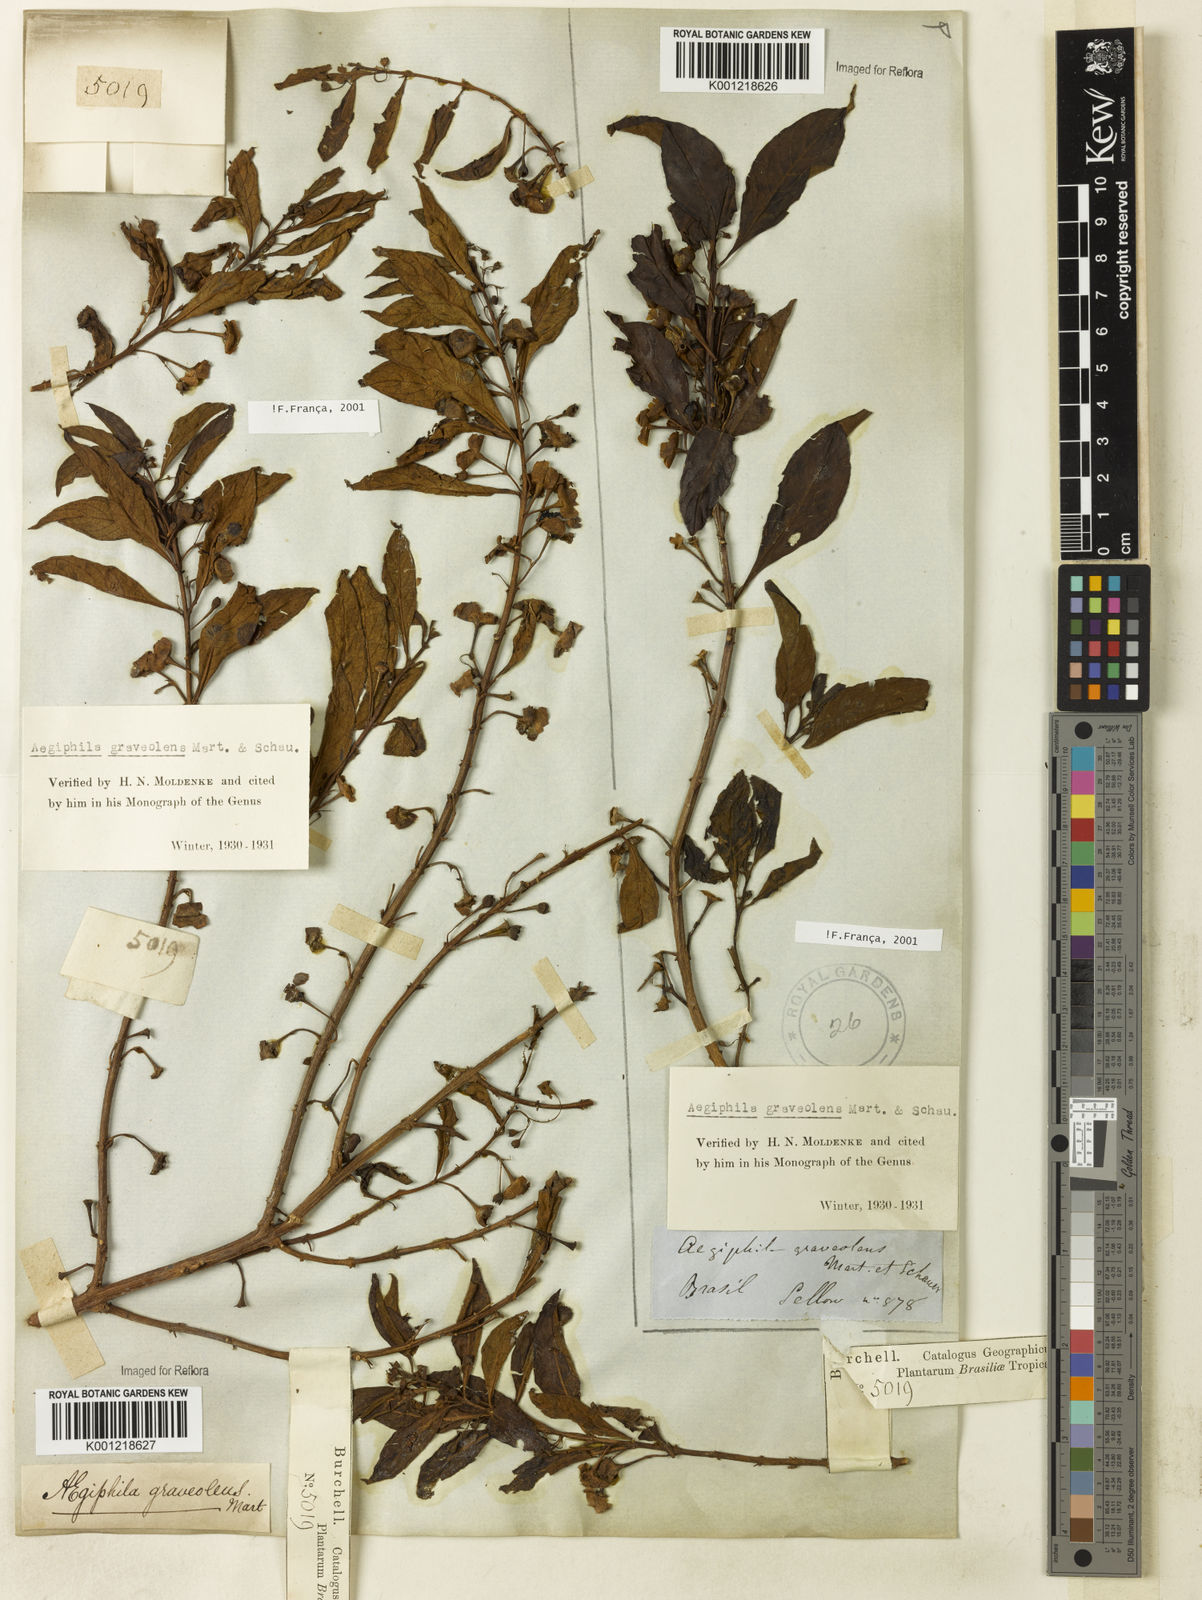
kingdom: Plantae
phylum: Tracheophyta
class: Magnoliopsida
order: Lamiales
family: Lamiaceae
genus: Aegiphila
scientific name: Aegiphila graveolens
